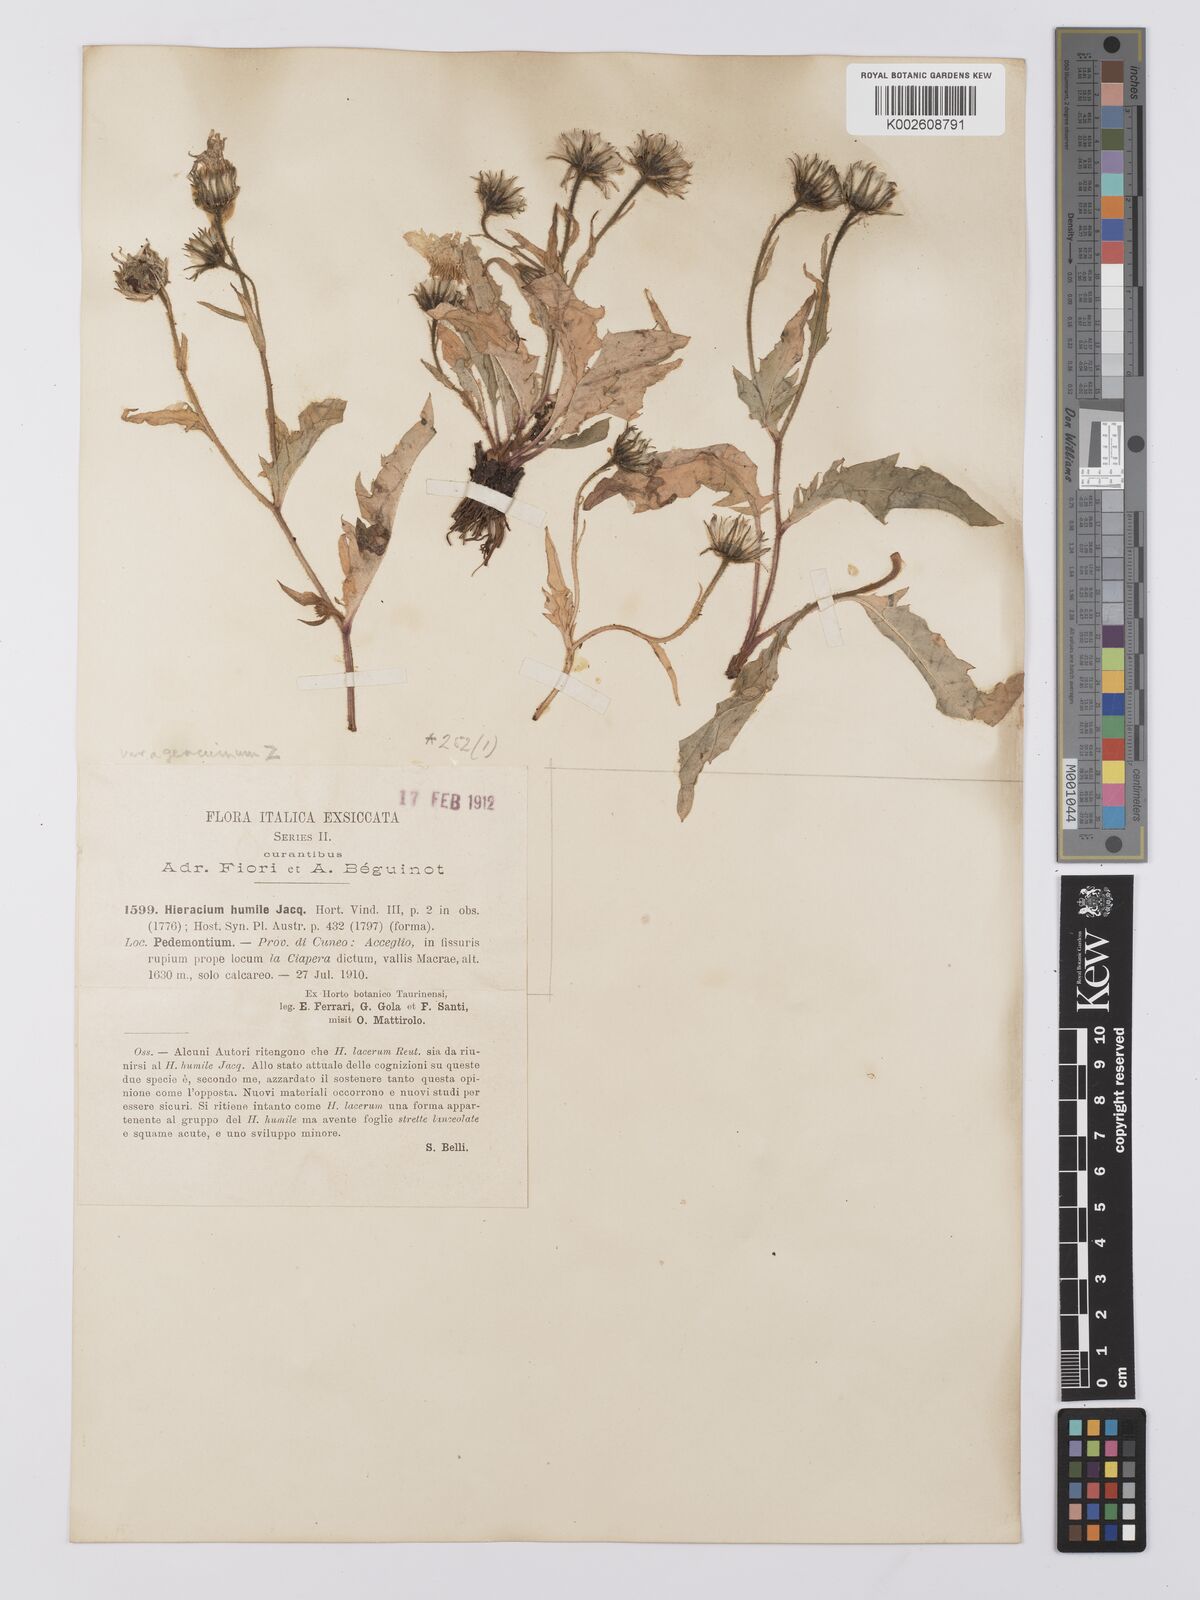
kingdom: Plantae
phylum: Tracheophyta
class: Magnoliopsida
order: Asterales
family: Asteraceae
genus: Hieracium
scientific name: Hieracium humile
